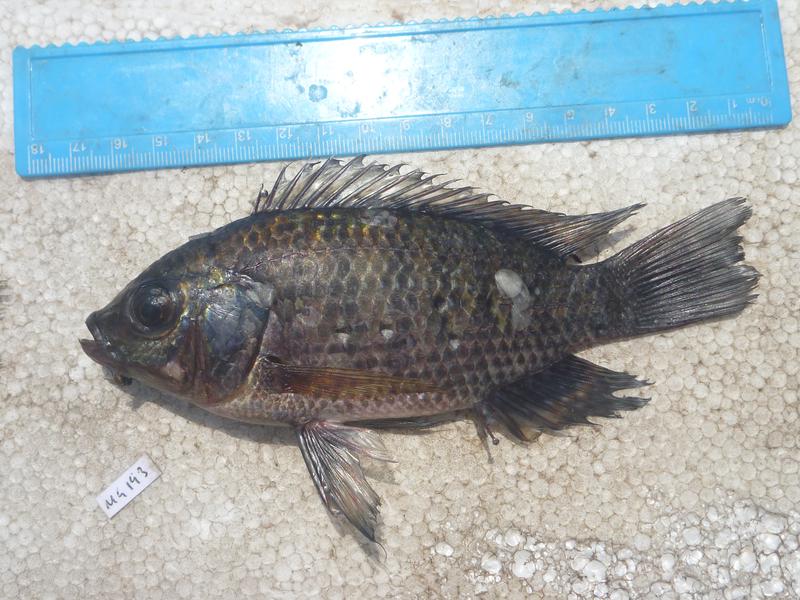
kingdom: Animalia
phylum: Chordata
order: Perciformes
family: Cichlidae
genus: Oreochromis
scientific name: Oreochromis leucostictus
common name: Blue spotted tilapia
